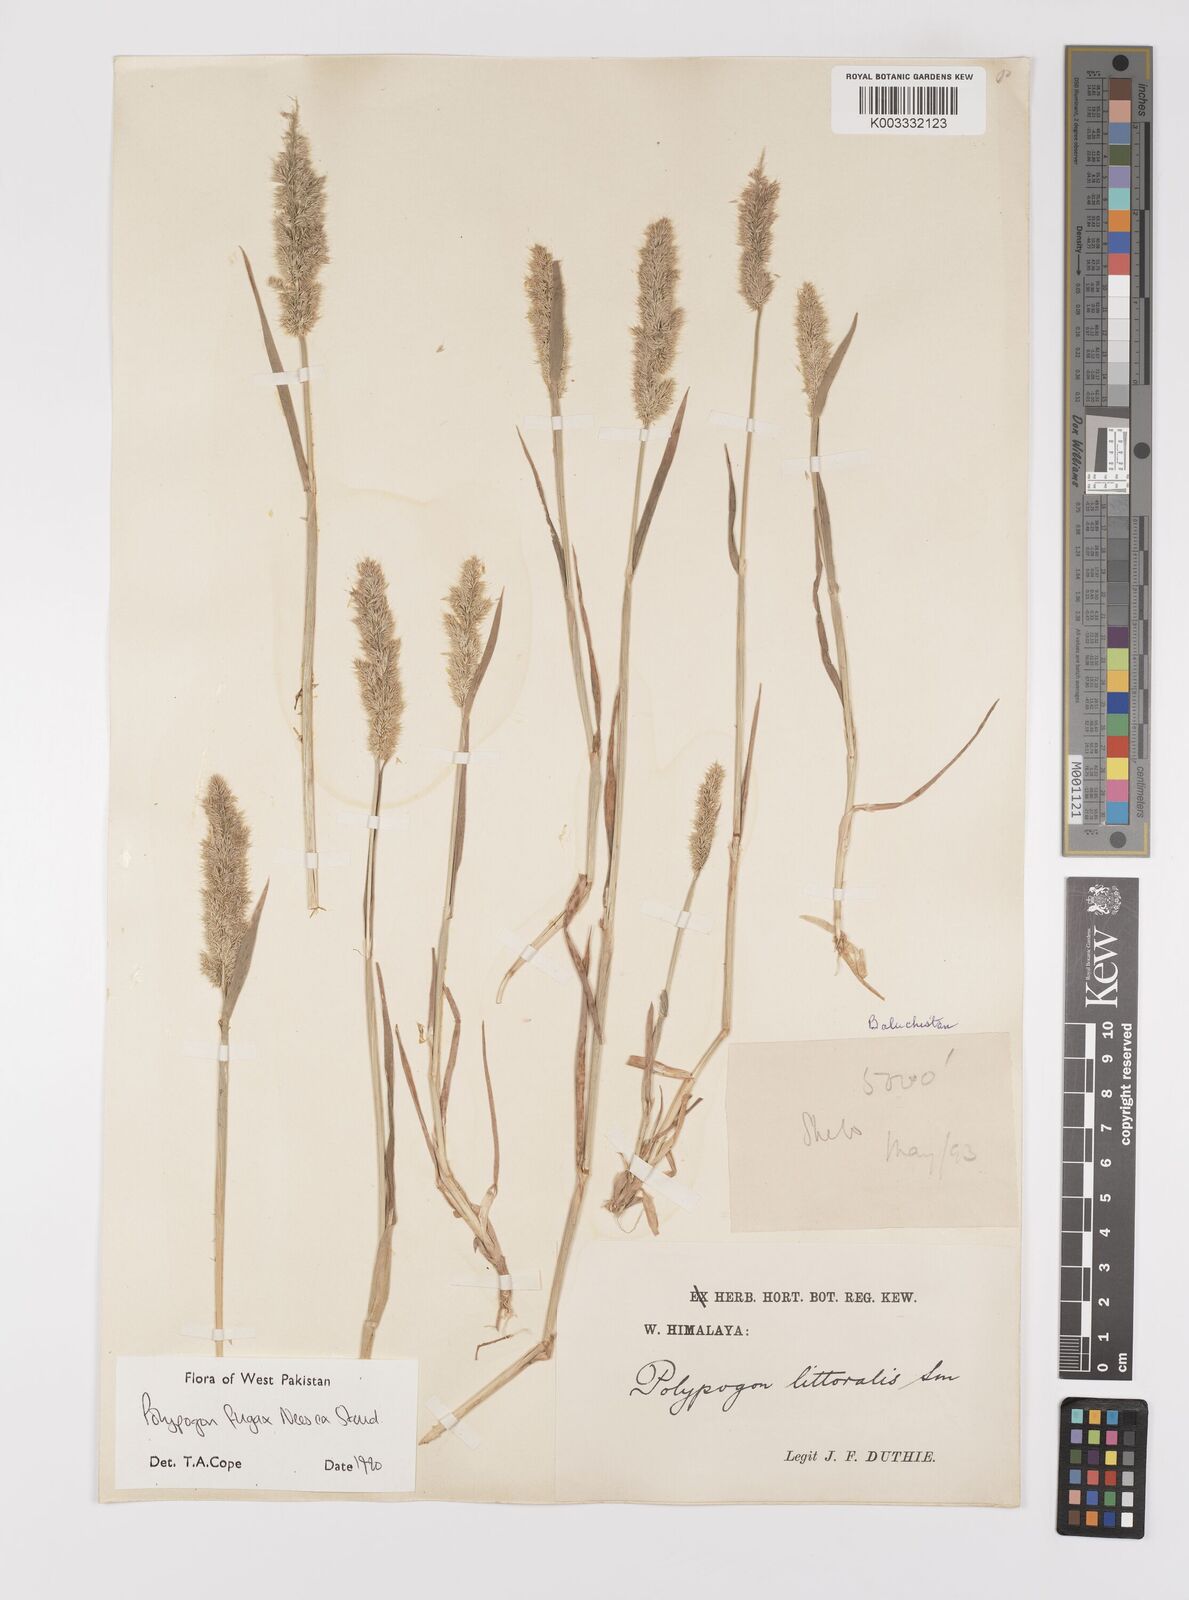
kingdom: Plantae
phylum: Tracheophyta
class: Liliopsida
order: Poales
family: Poaceae
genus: Polypogon
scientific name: Polypogon fugax
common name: Asia minor bluegrass
